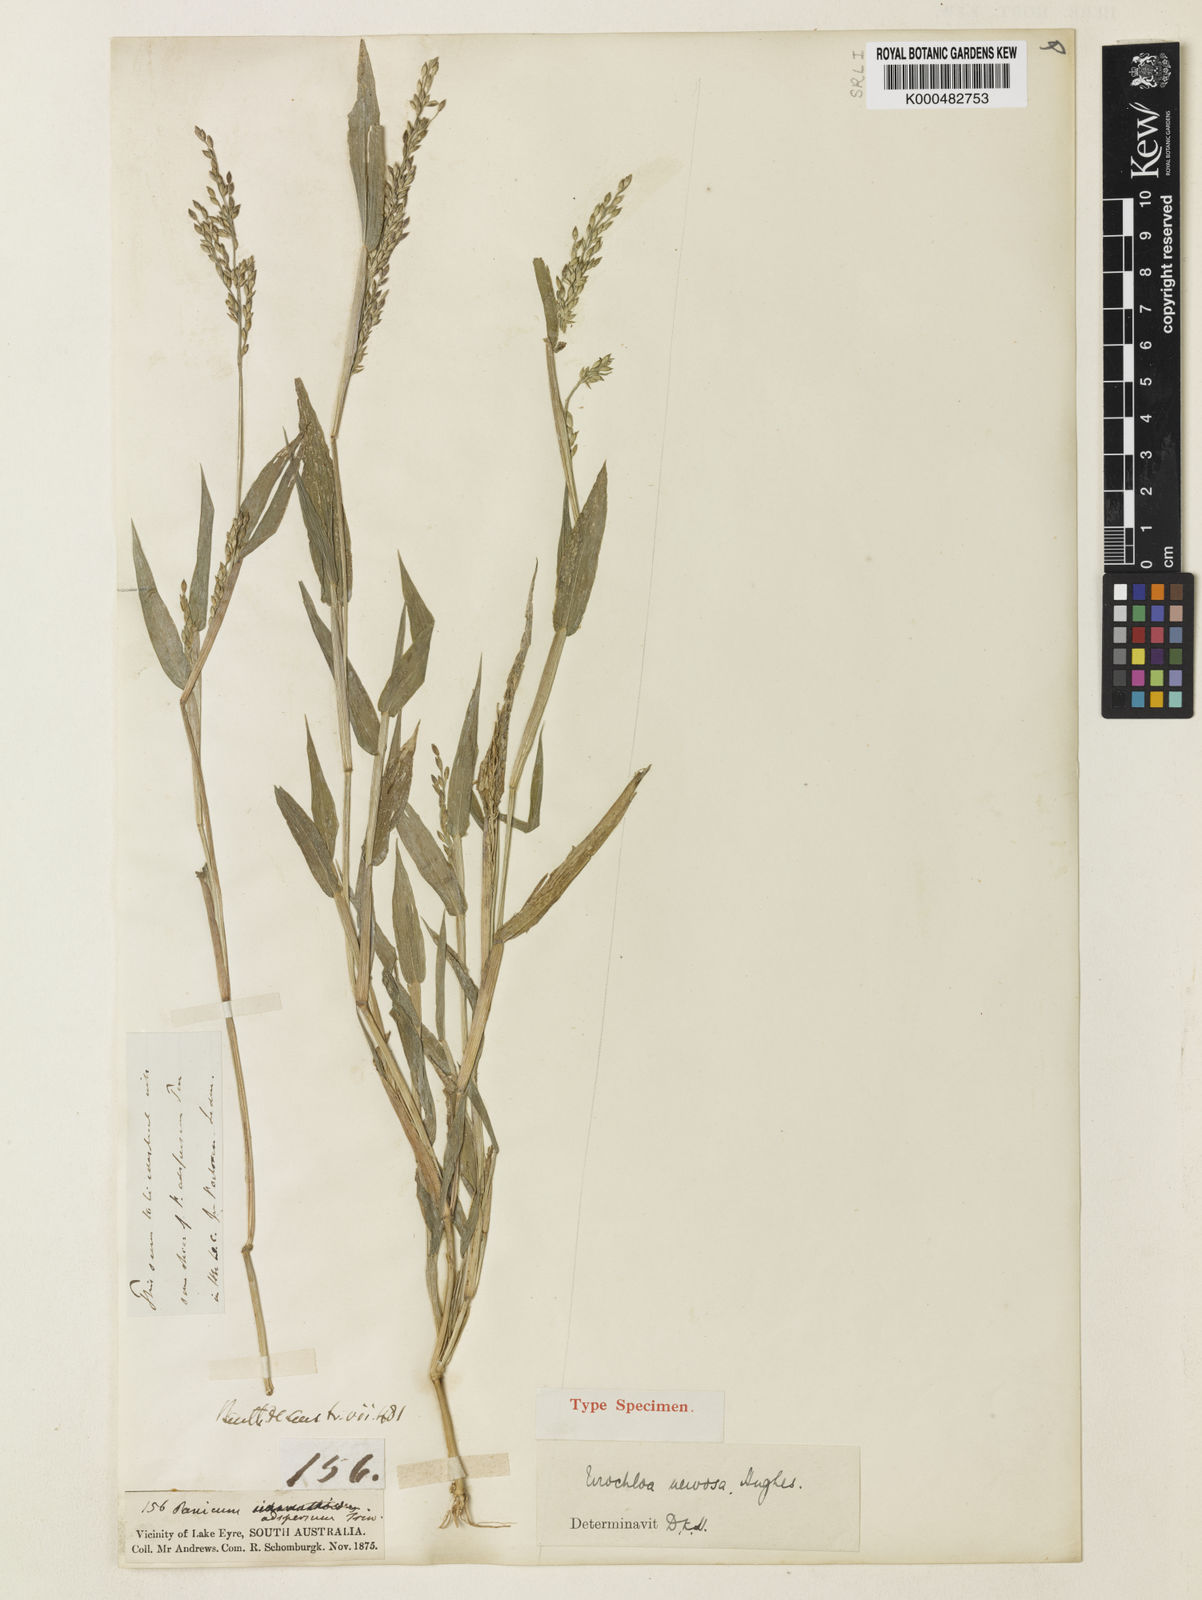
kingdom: Plantae
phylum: Tracheophyta
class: Liliopsida
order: Poales
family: Poaceae
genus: Urochloa
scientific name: Urochloa praetervisa
